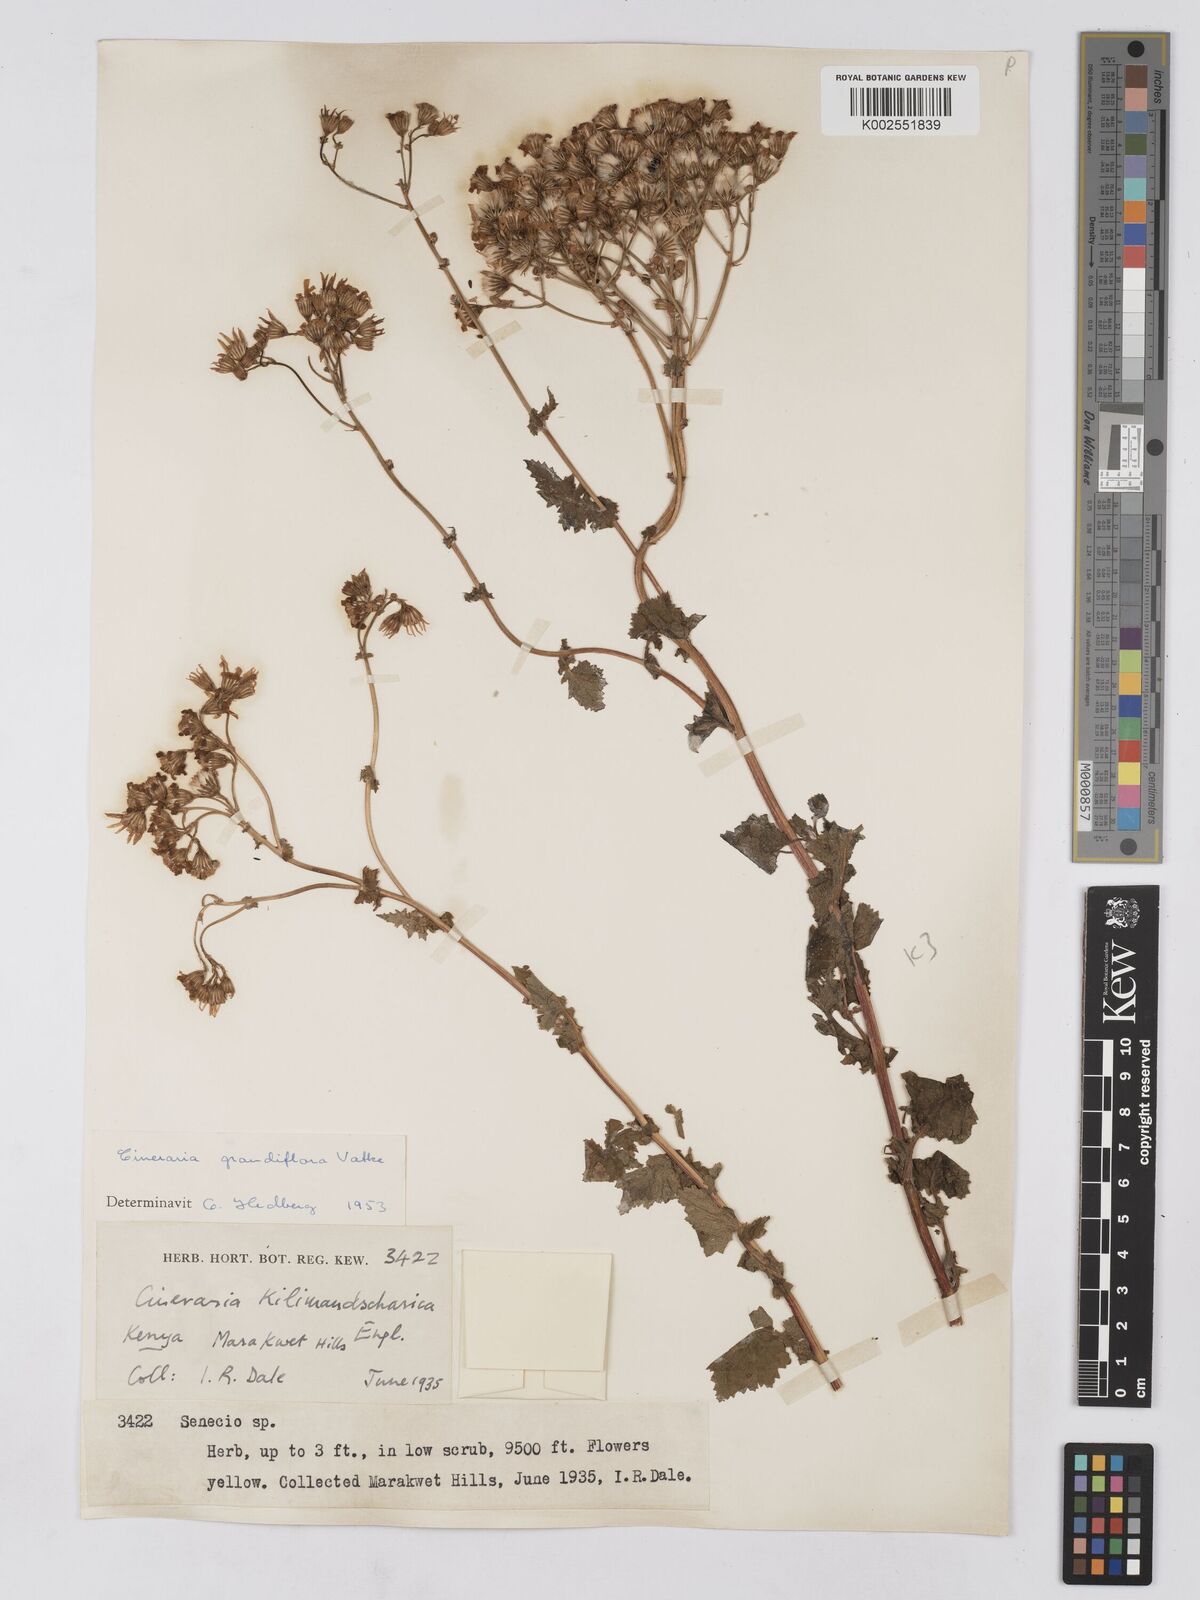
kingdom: Plantae
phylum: Tracheophyta
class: Magnoliopsida
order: Asterales
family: Asteraceae
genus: Cineraria
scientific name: Cineraria deltoidea
